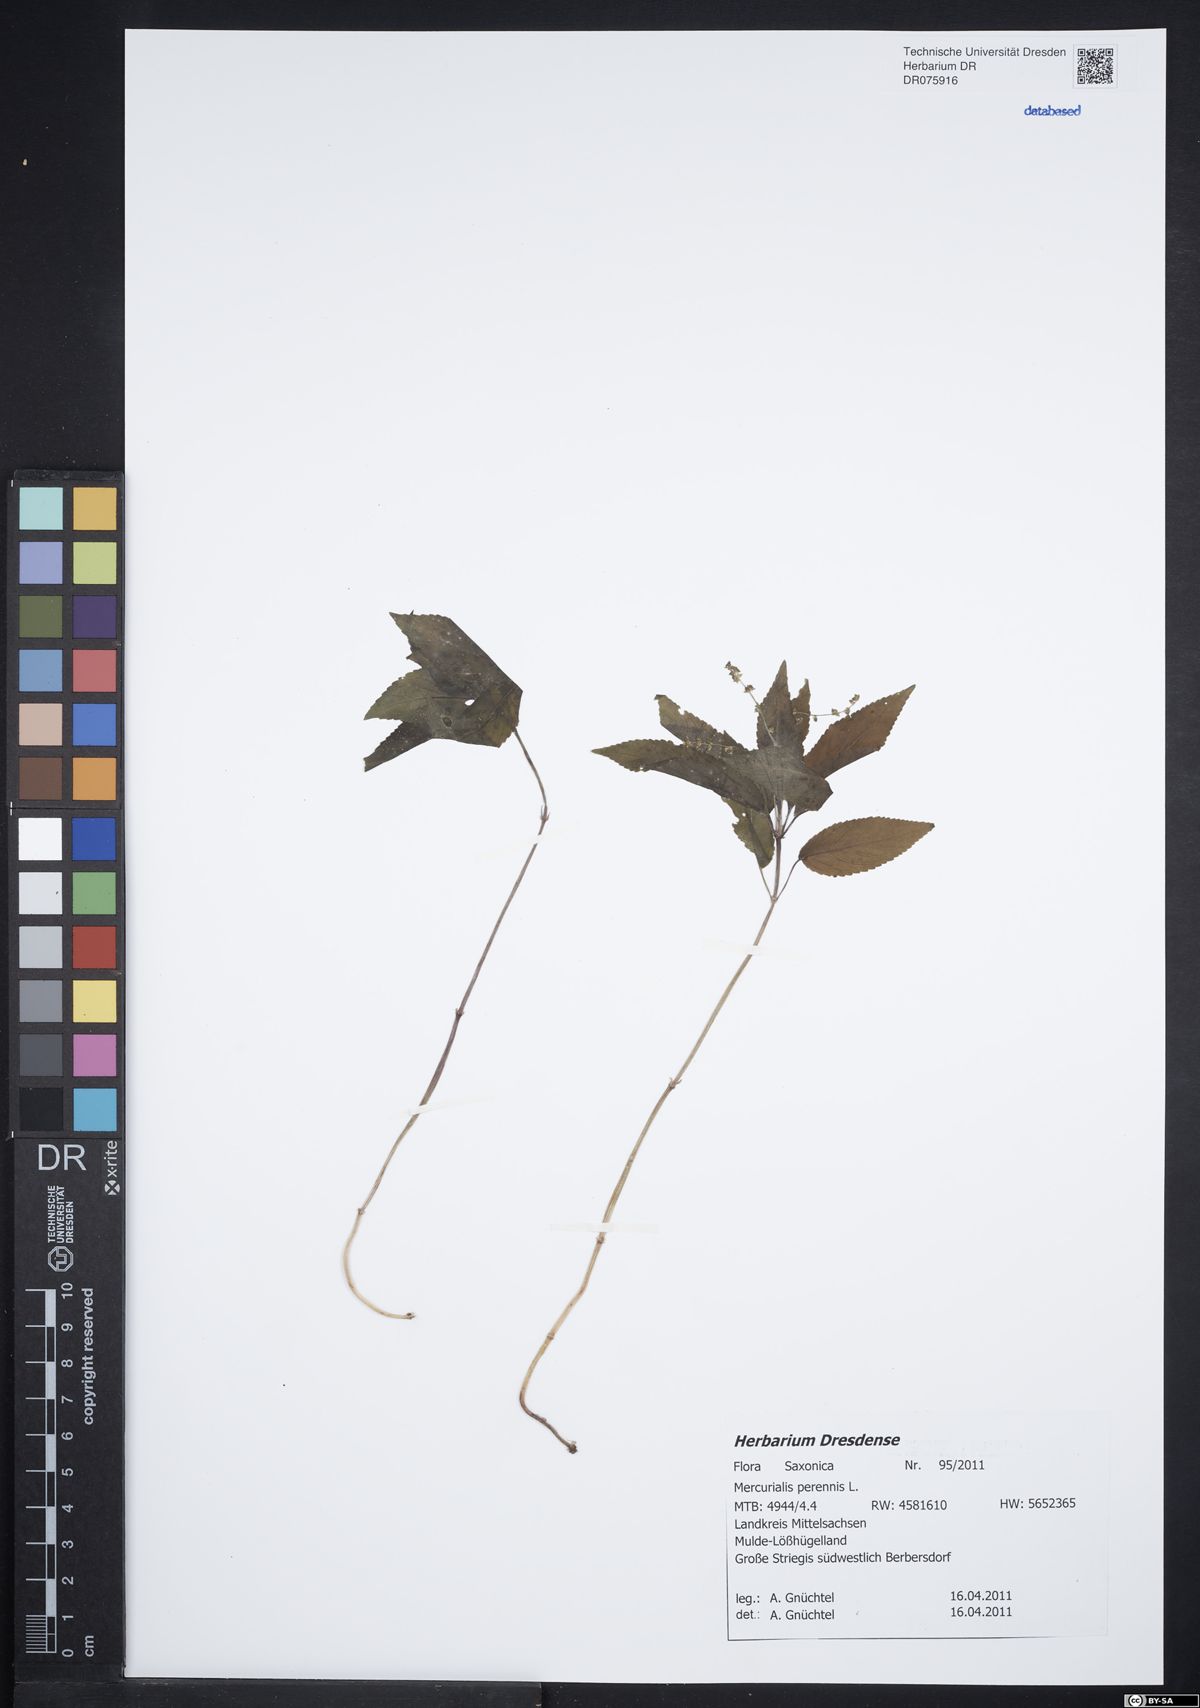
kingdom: Plantae
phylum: Tracheophyta
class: Magnoliopsida
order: Malpighiales
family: Euphorbiaceae
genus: Mercurialis
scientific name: Mercurialis perennis
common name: Dog mercury
